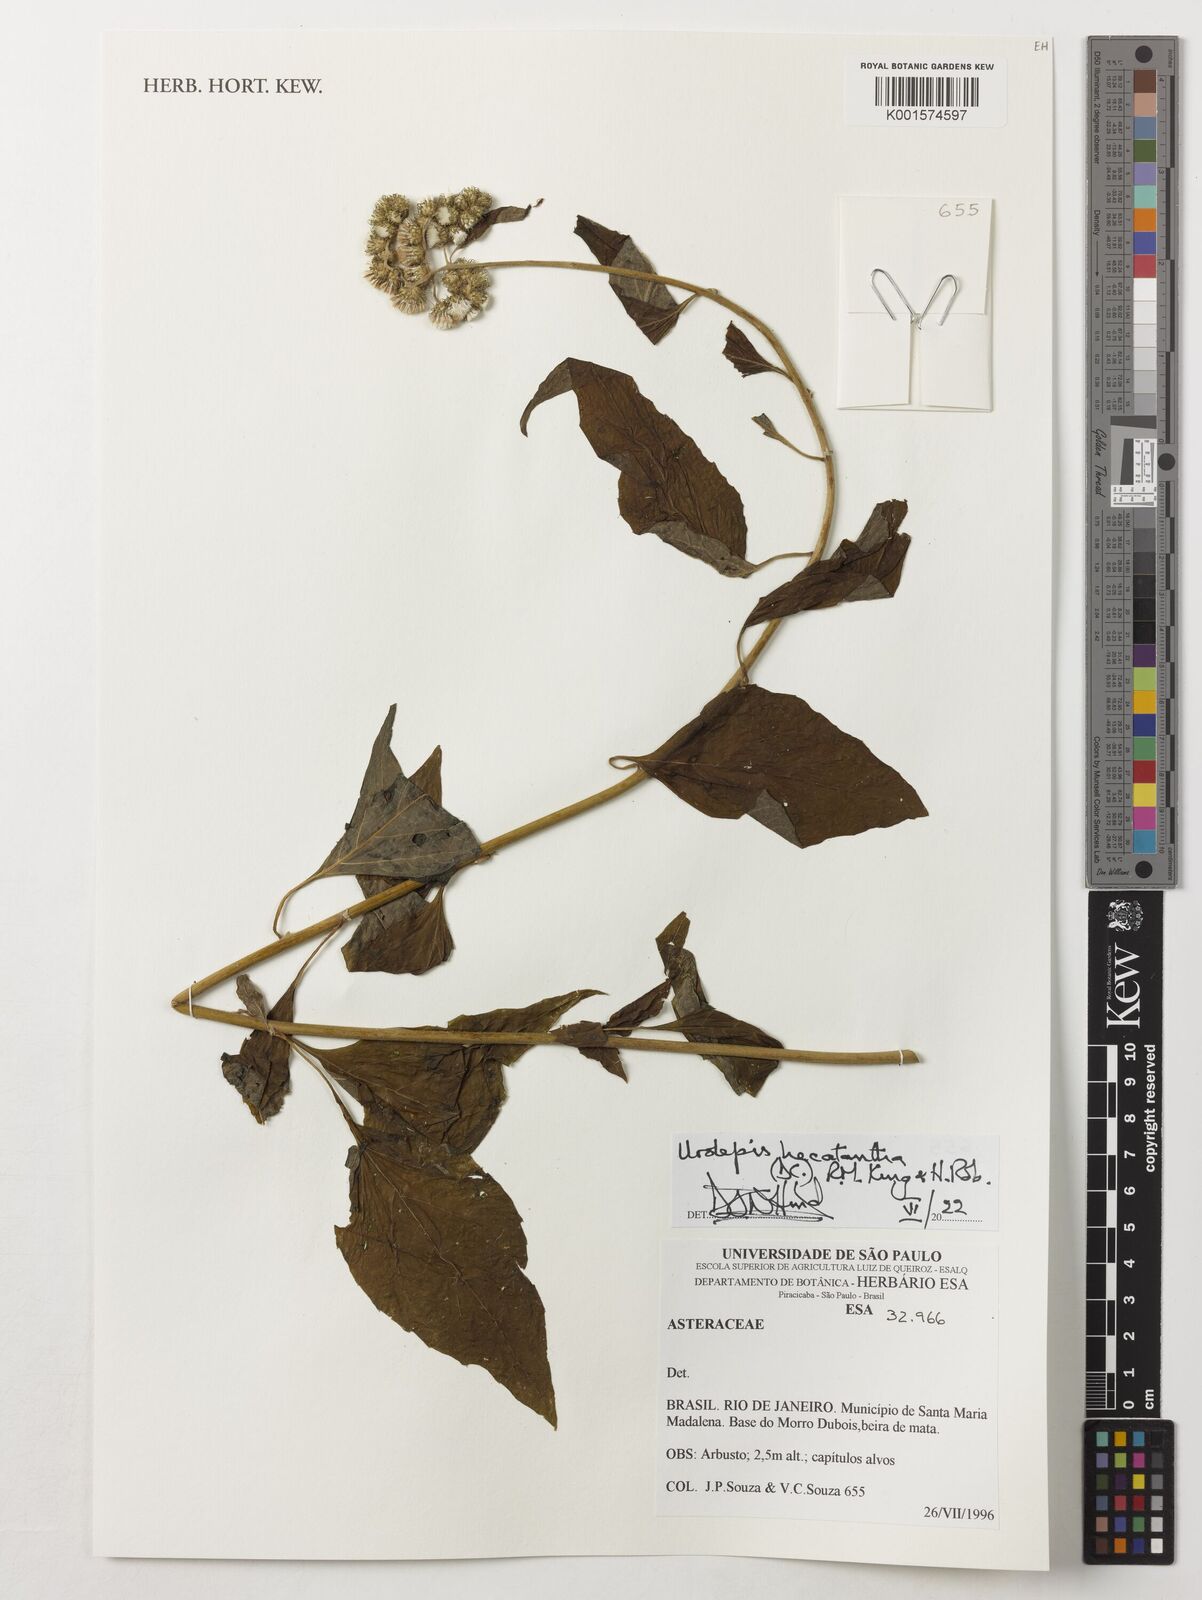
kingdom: Plantae
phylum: Tracheophyta
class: Magnoliopsida
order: Asterales
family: Asteraceae
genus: Urolepis
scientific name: Urolepis hecatantha
